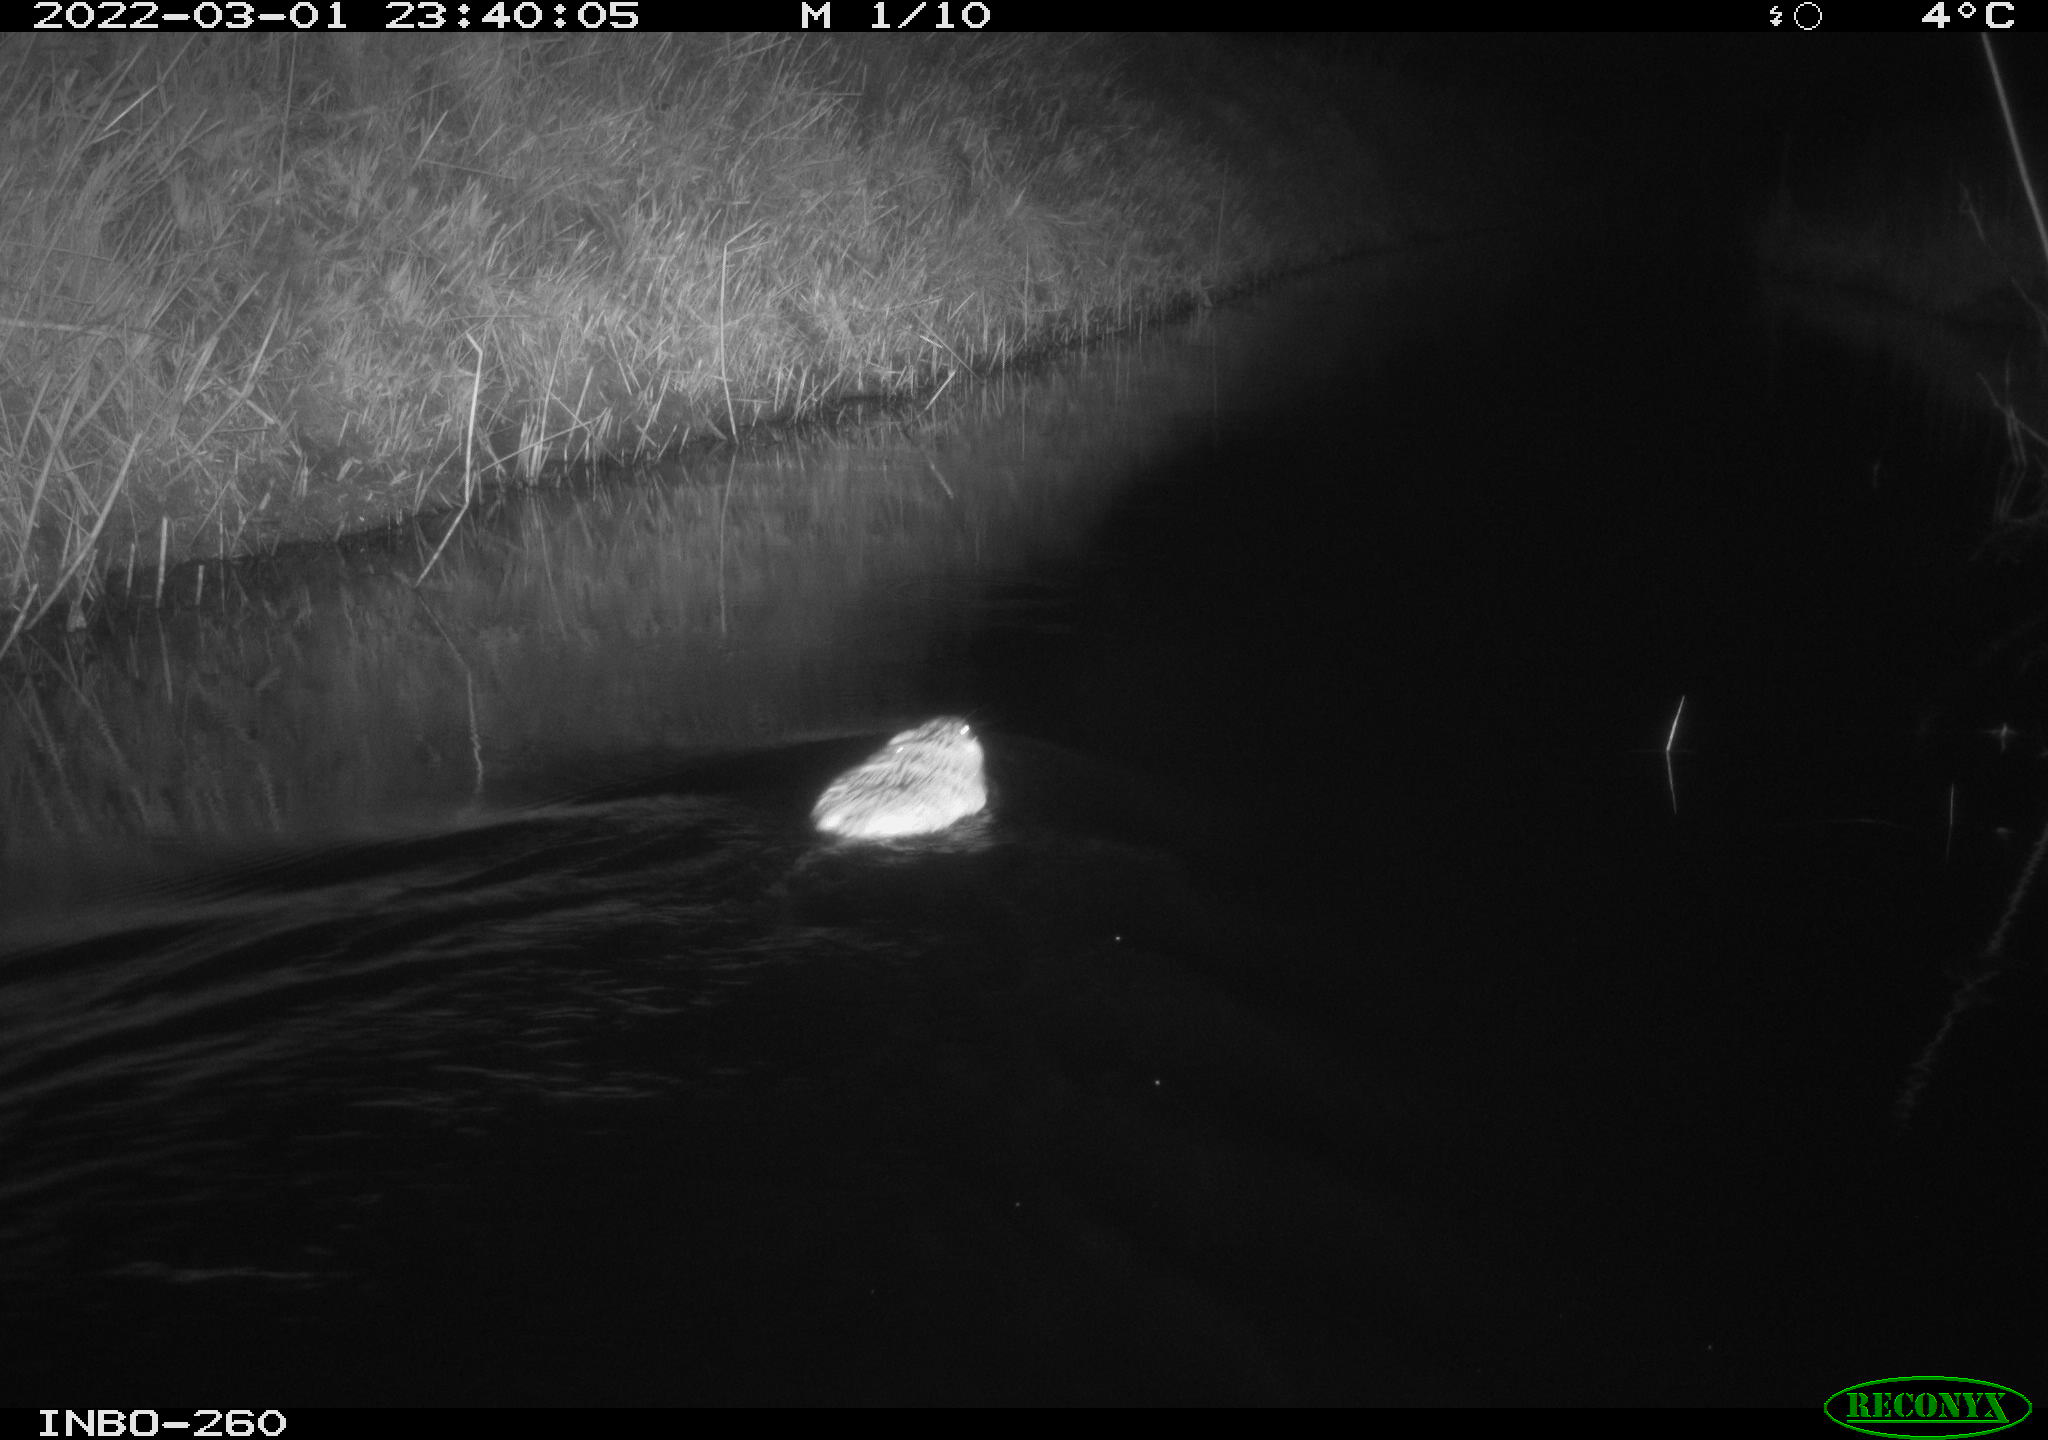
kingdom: Animalia
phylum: Chordata
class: Mammalia
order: Rodentia
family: Cricetidae
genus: Ondatra
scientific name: Ondatra zibethicus
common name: Muskrat
